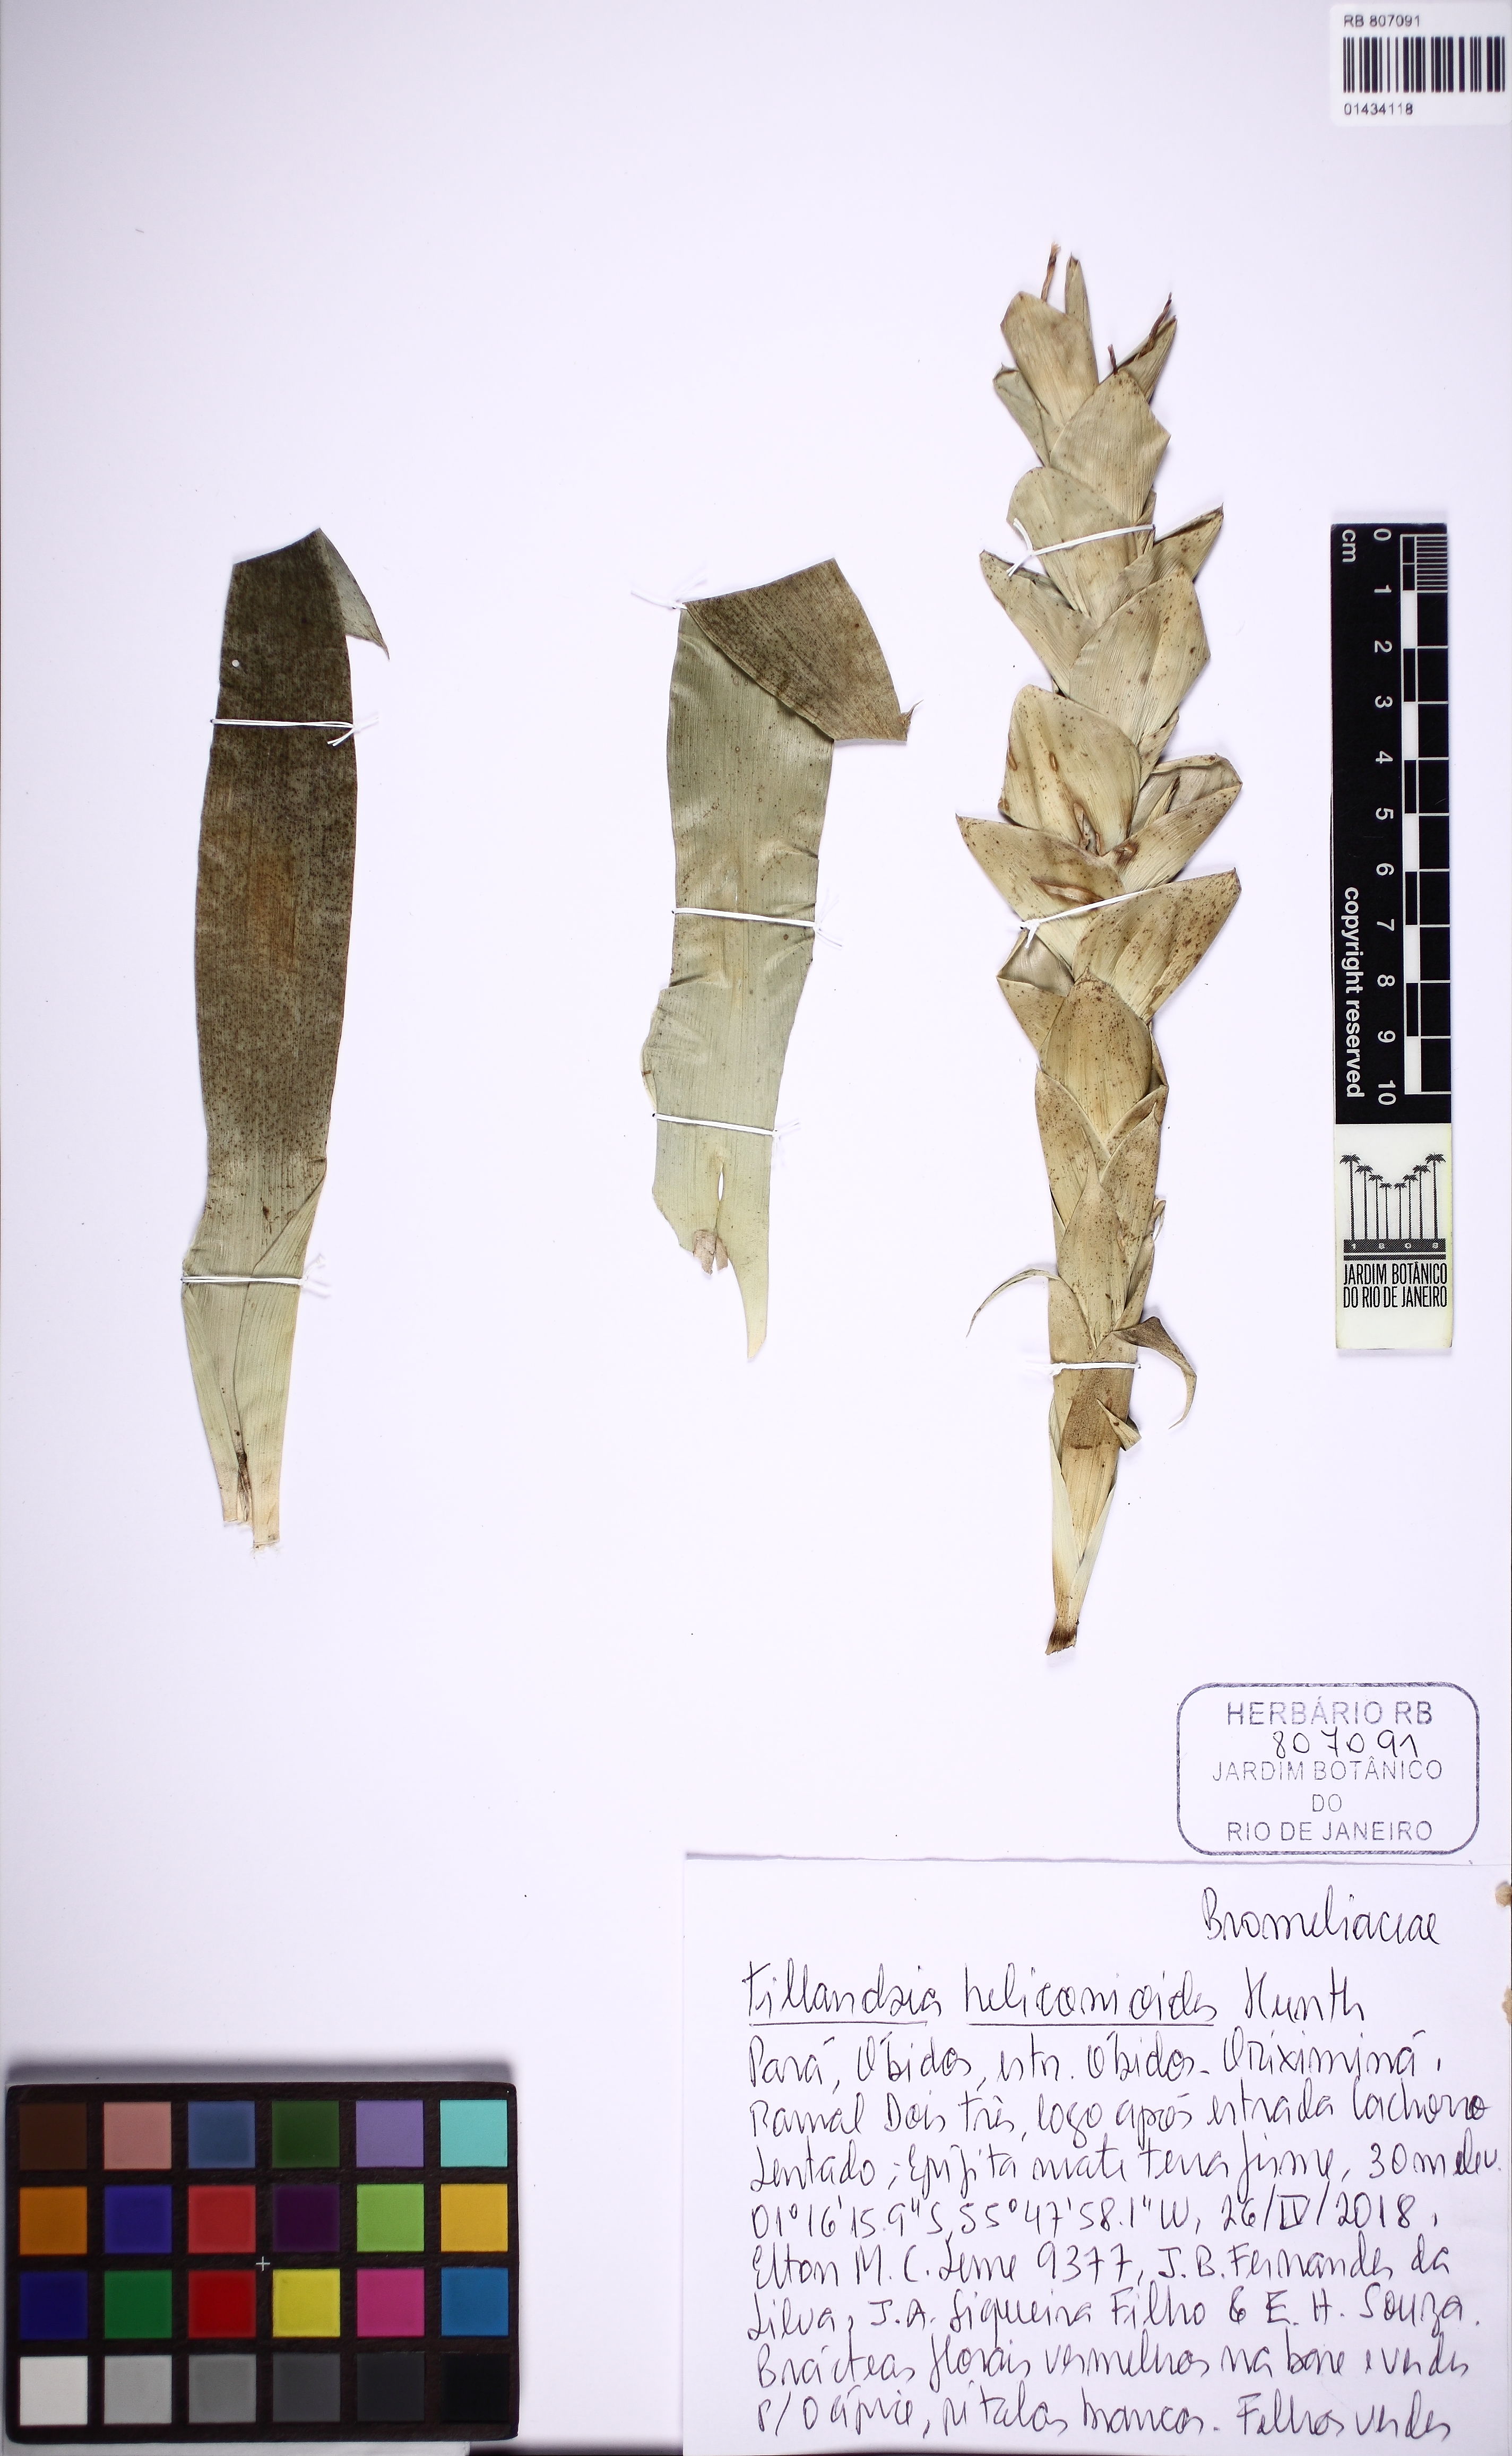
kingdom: Plantae
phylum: Tracheophyta
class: Liliopsida
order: Poales
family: Bromeliaceae
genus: Tillandsia
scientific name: Tillandsia heliconioides
